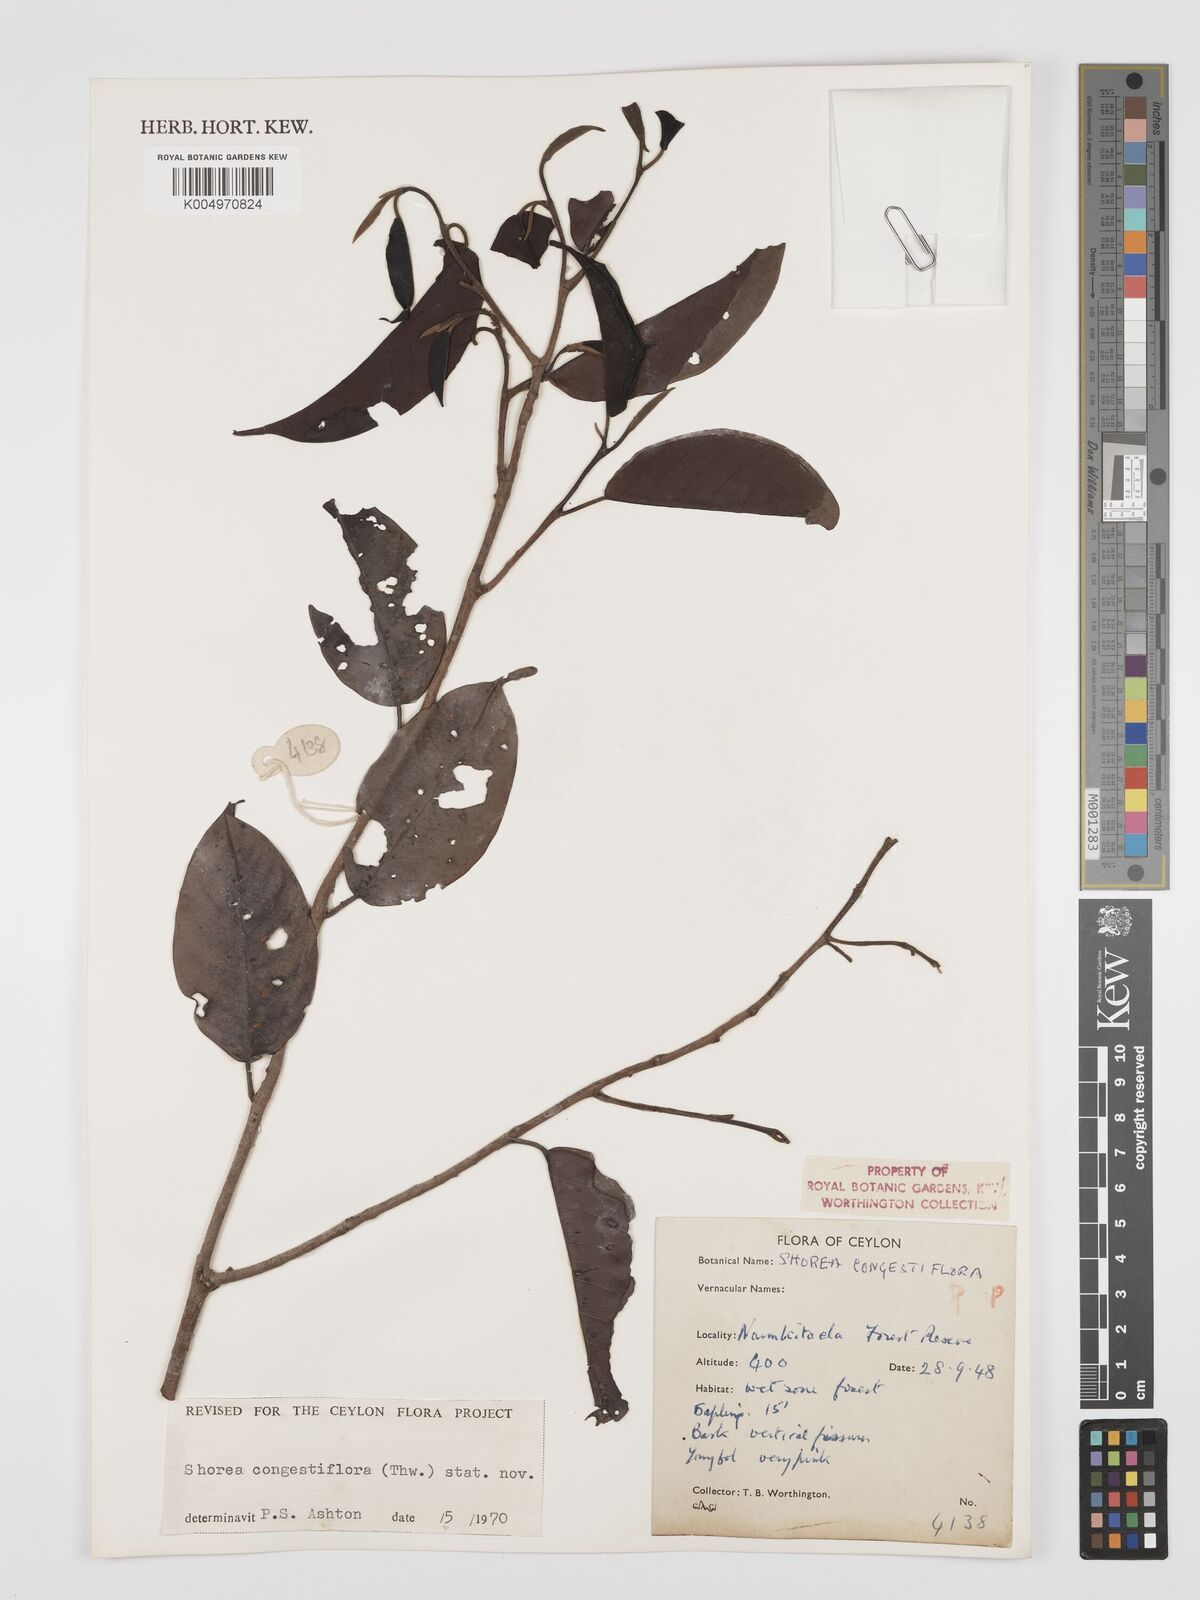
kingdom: Plantae
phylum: Tracheophyta
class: Magnoliopsida
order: Malvales
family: Dipterocarpaceae
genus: Doona
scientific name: Doona congestiflora
